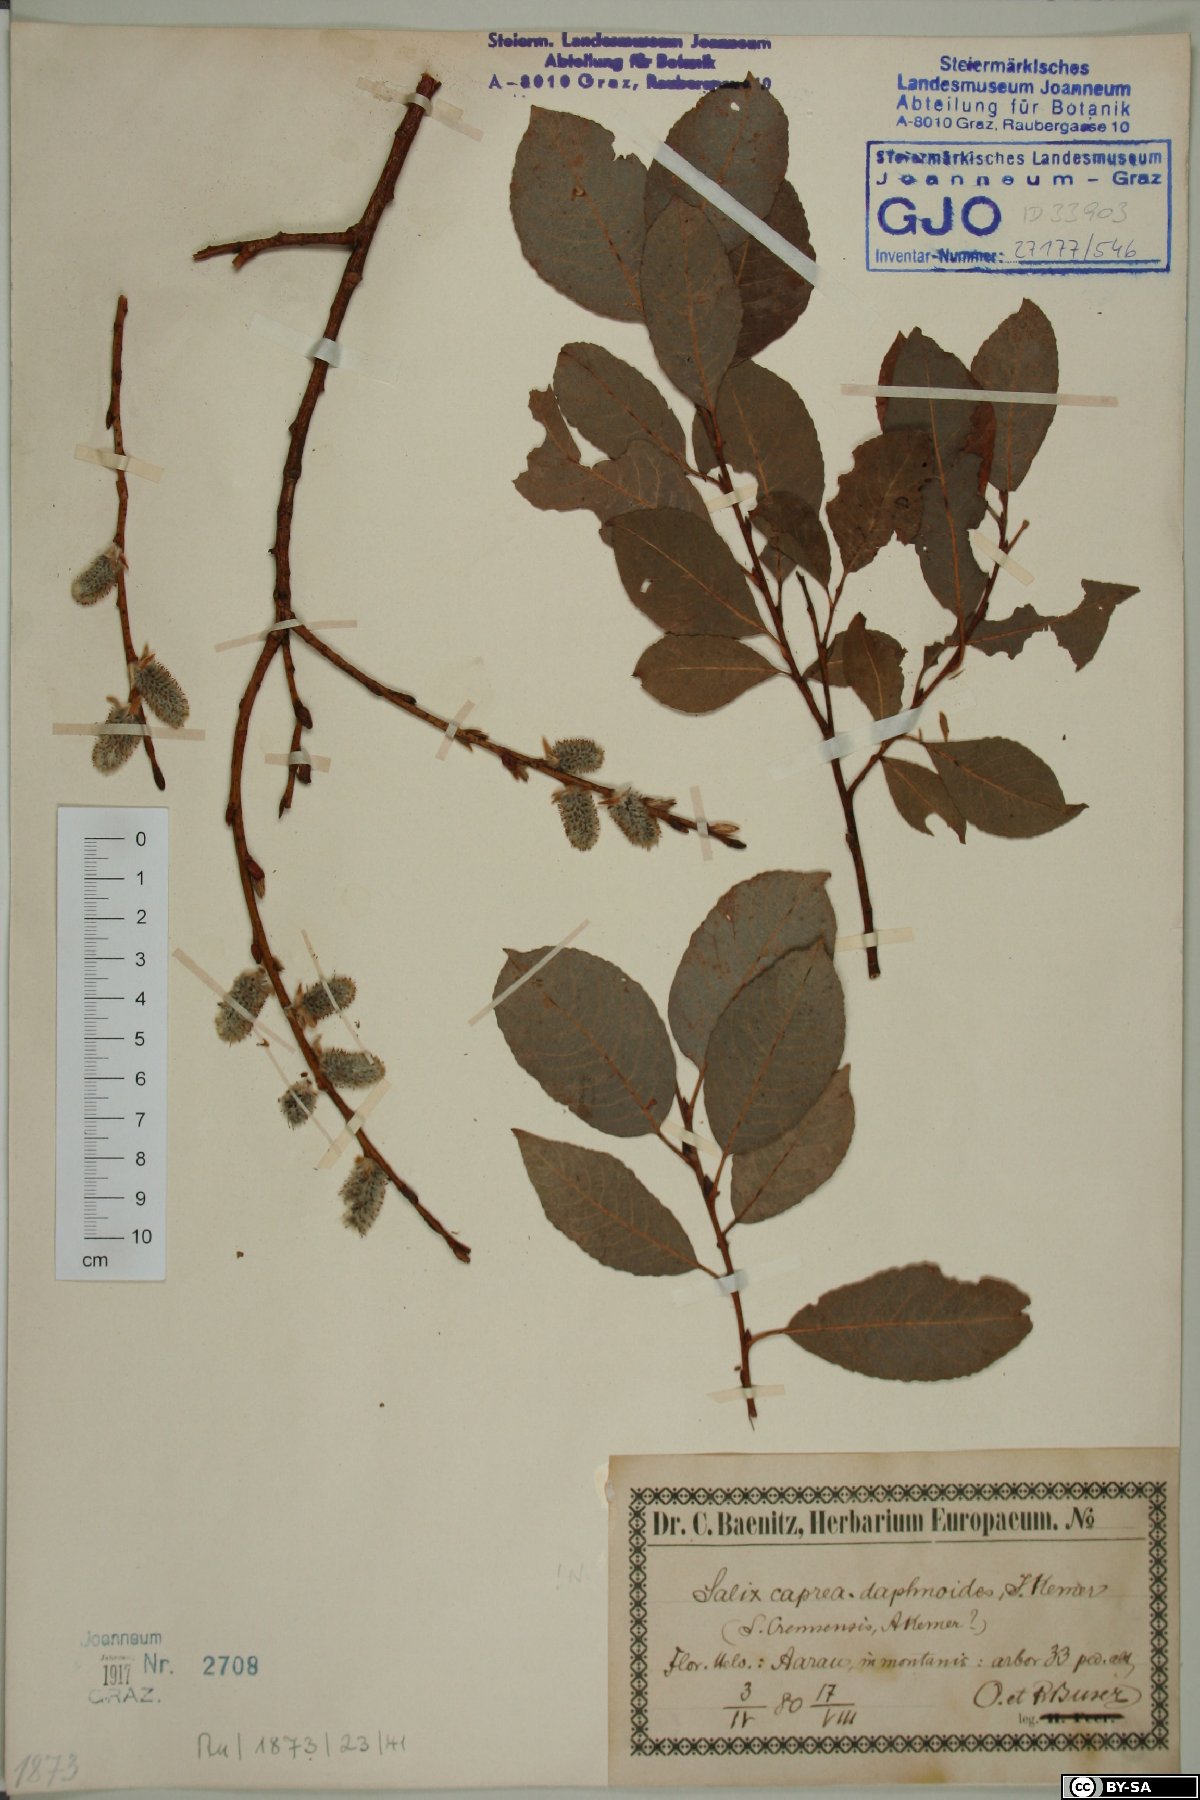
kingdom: Plantae
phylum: Tracheophyta
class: Magnoliopsida
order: Malpighiales
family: Salicaceae
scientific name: Salicaceae
